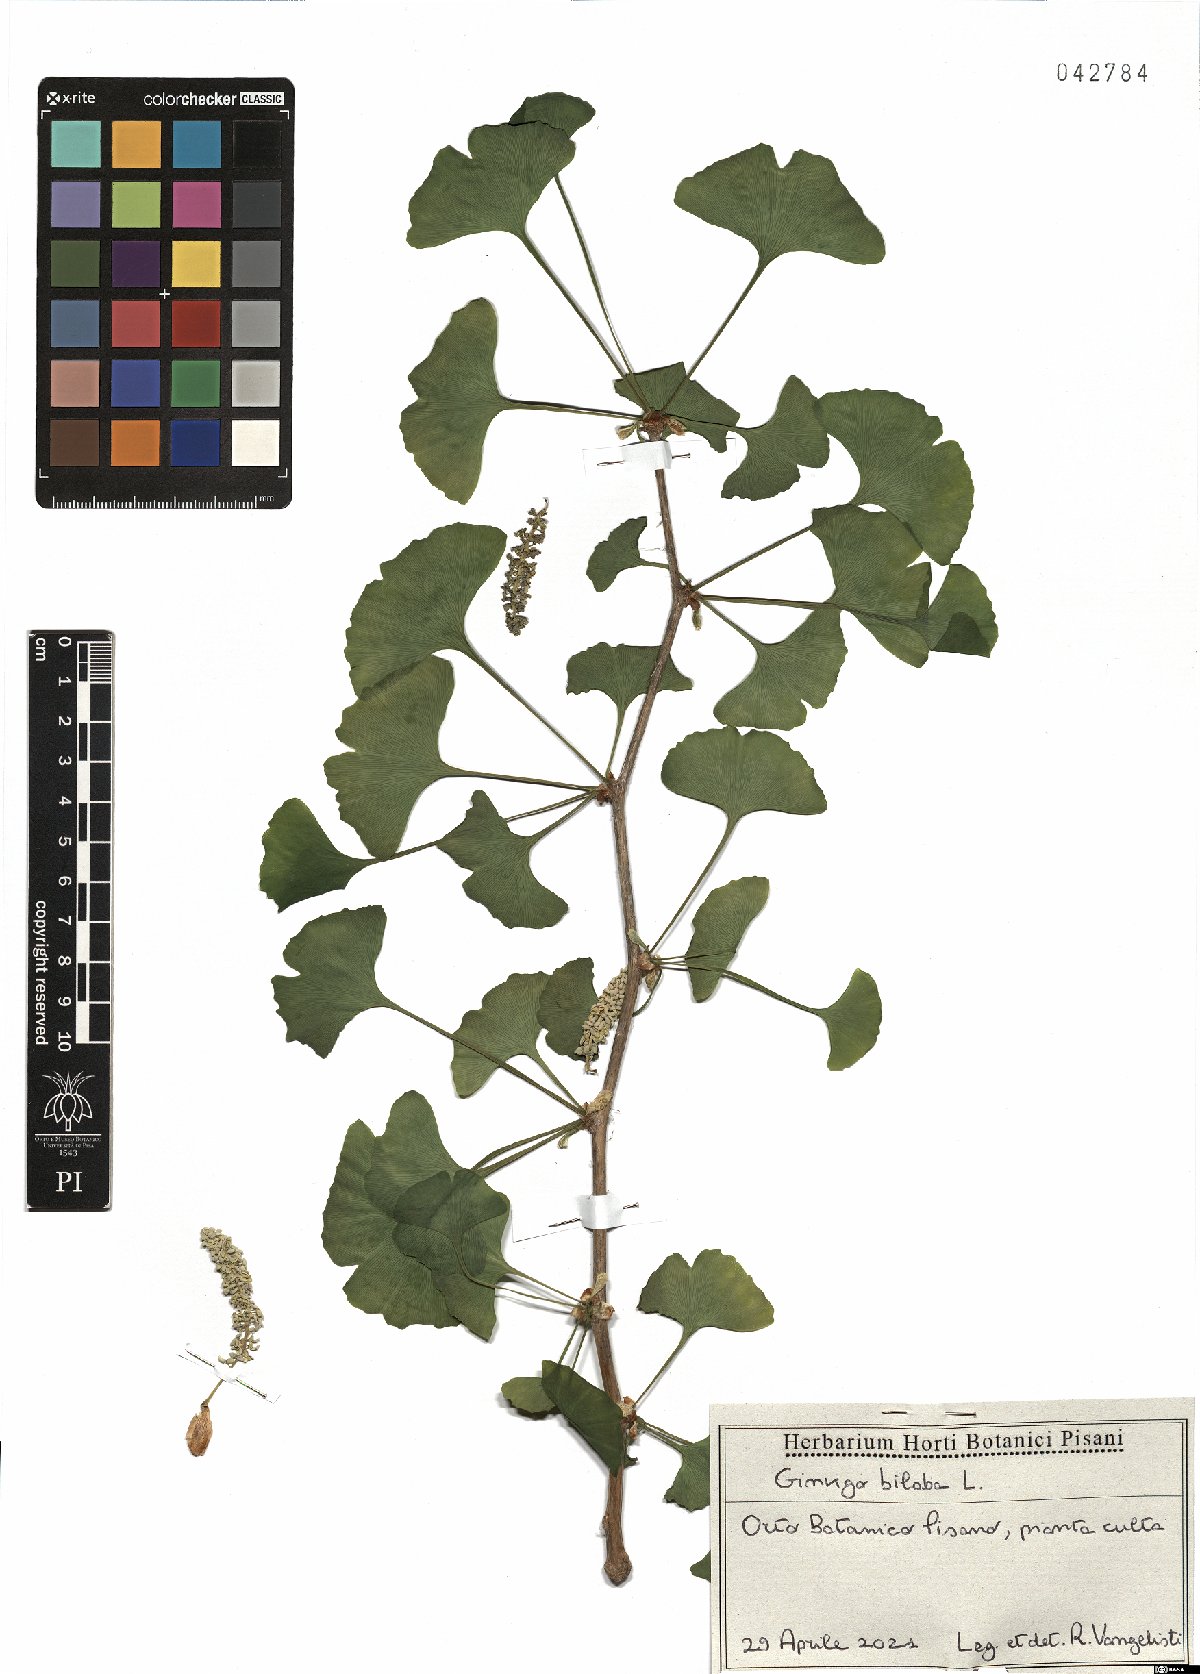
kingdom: Plantae
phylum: Tracheophyta
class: Ginkgoopsida
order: Ginkgoales
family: Ginkgoaceae
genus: Ginkgo
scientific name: Ginkgo biloba
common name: Ginkgo
